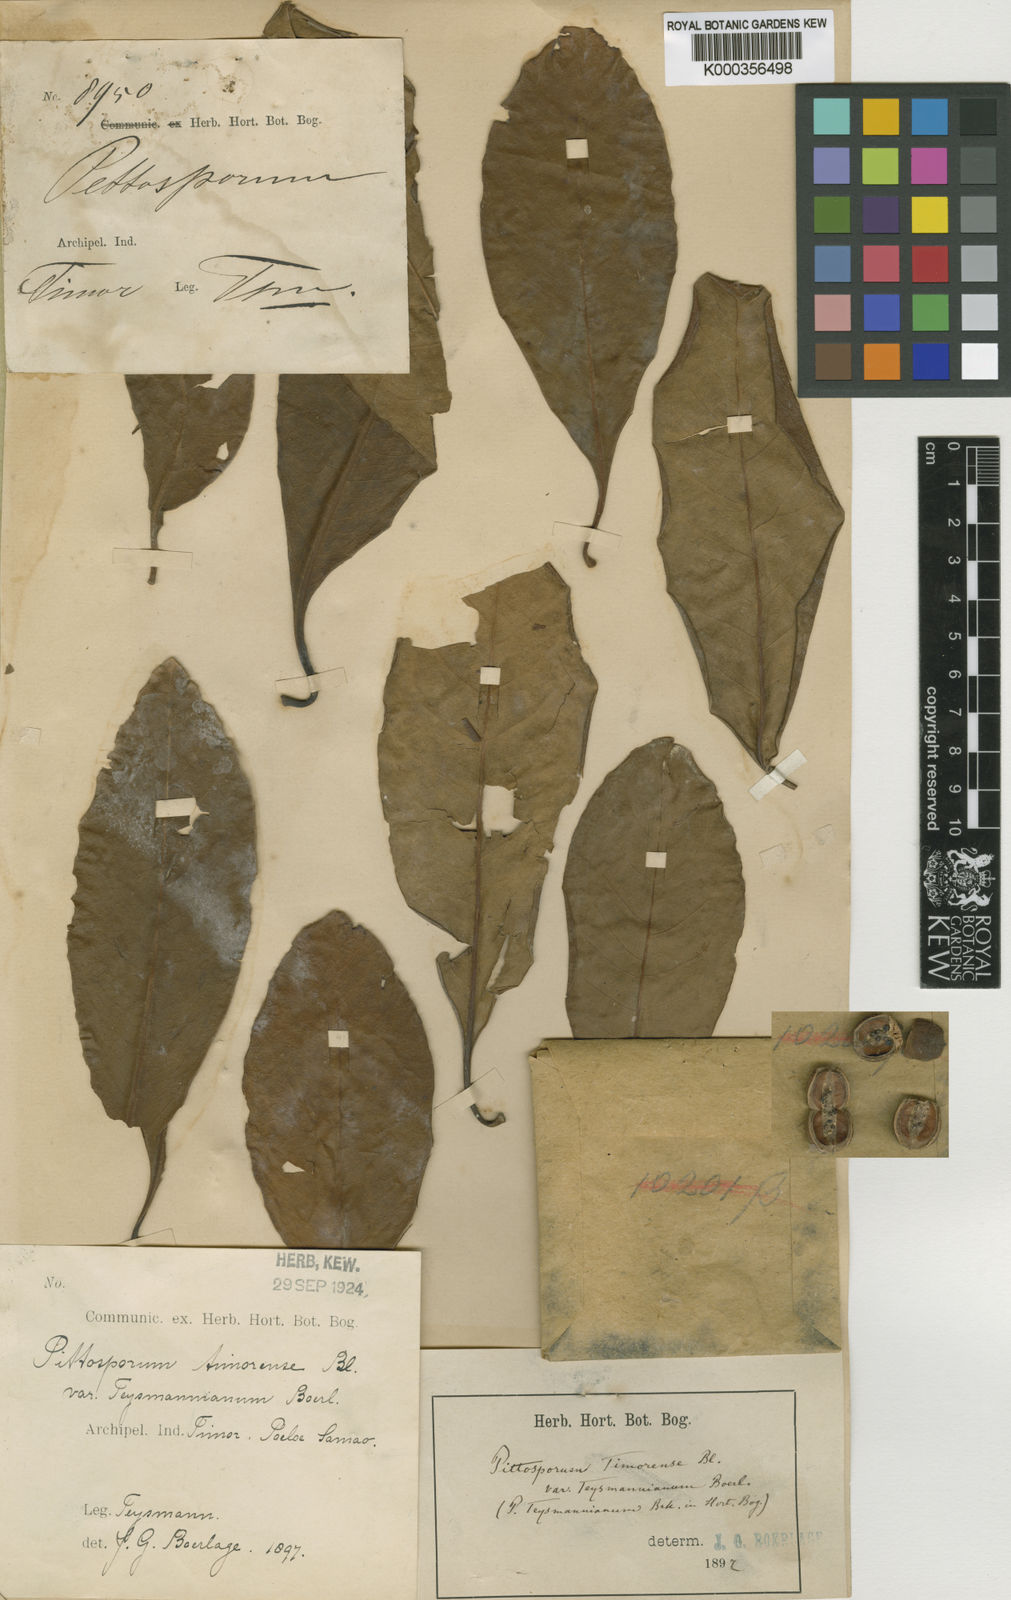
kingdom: Plantae
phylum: Tracheophyta
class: Magnoliopsida
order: Apiales
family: Pittosporaceae
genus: Pittosporum
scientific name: Pittosporum moluccanum
